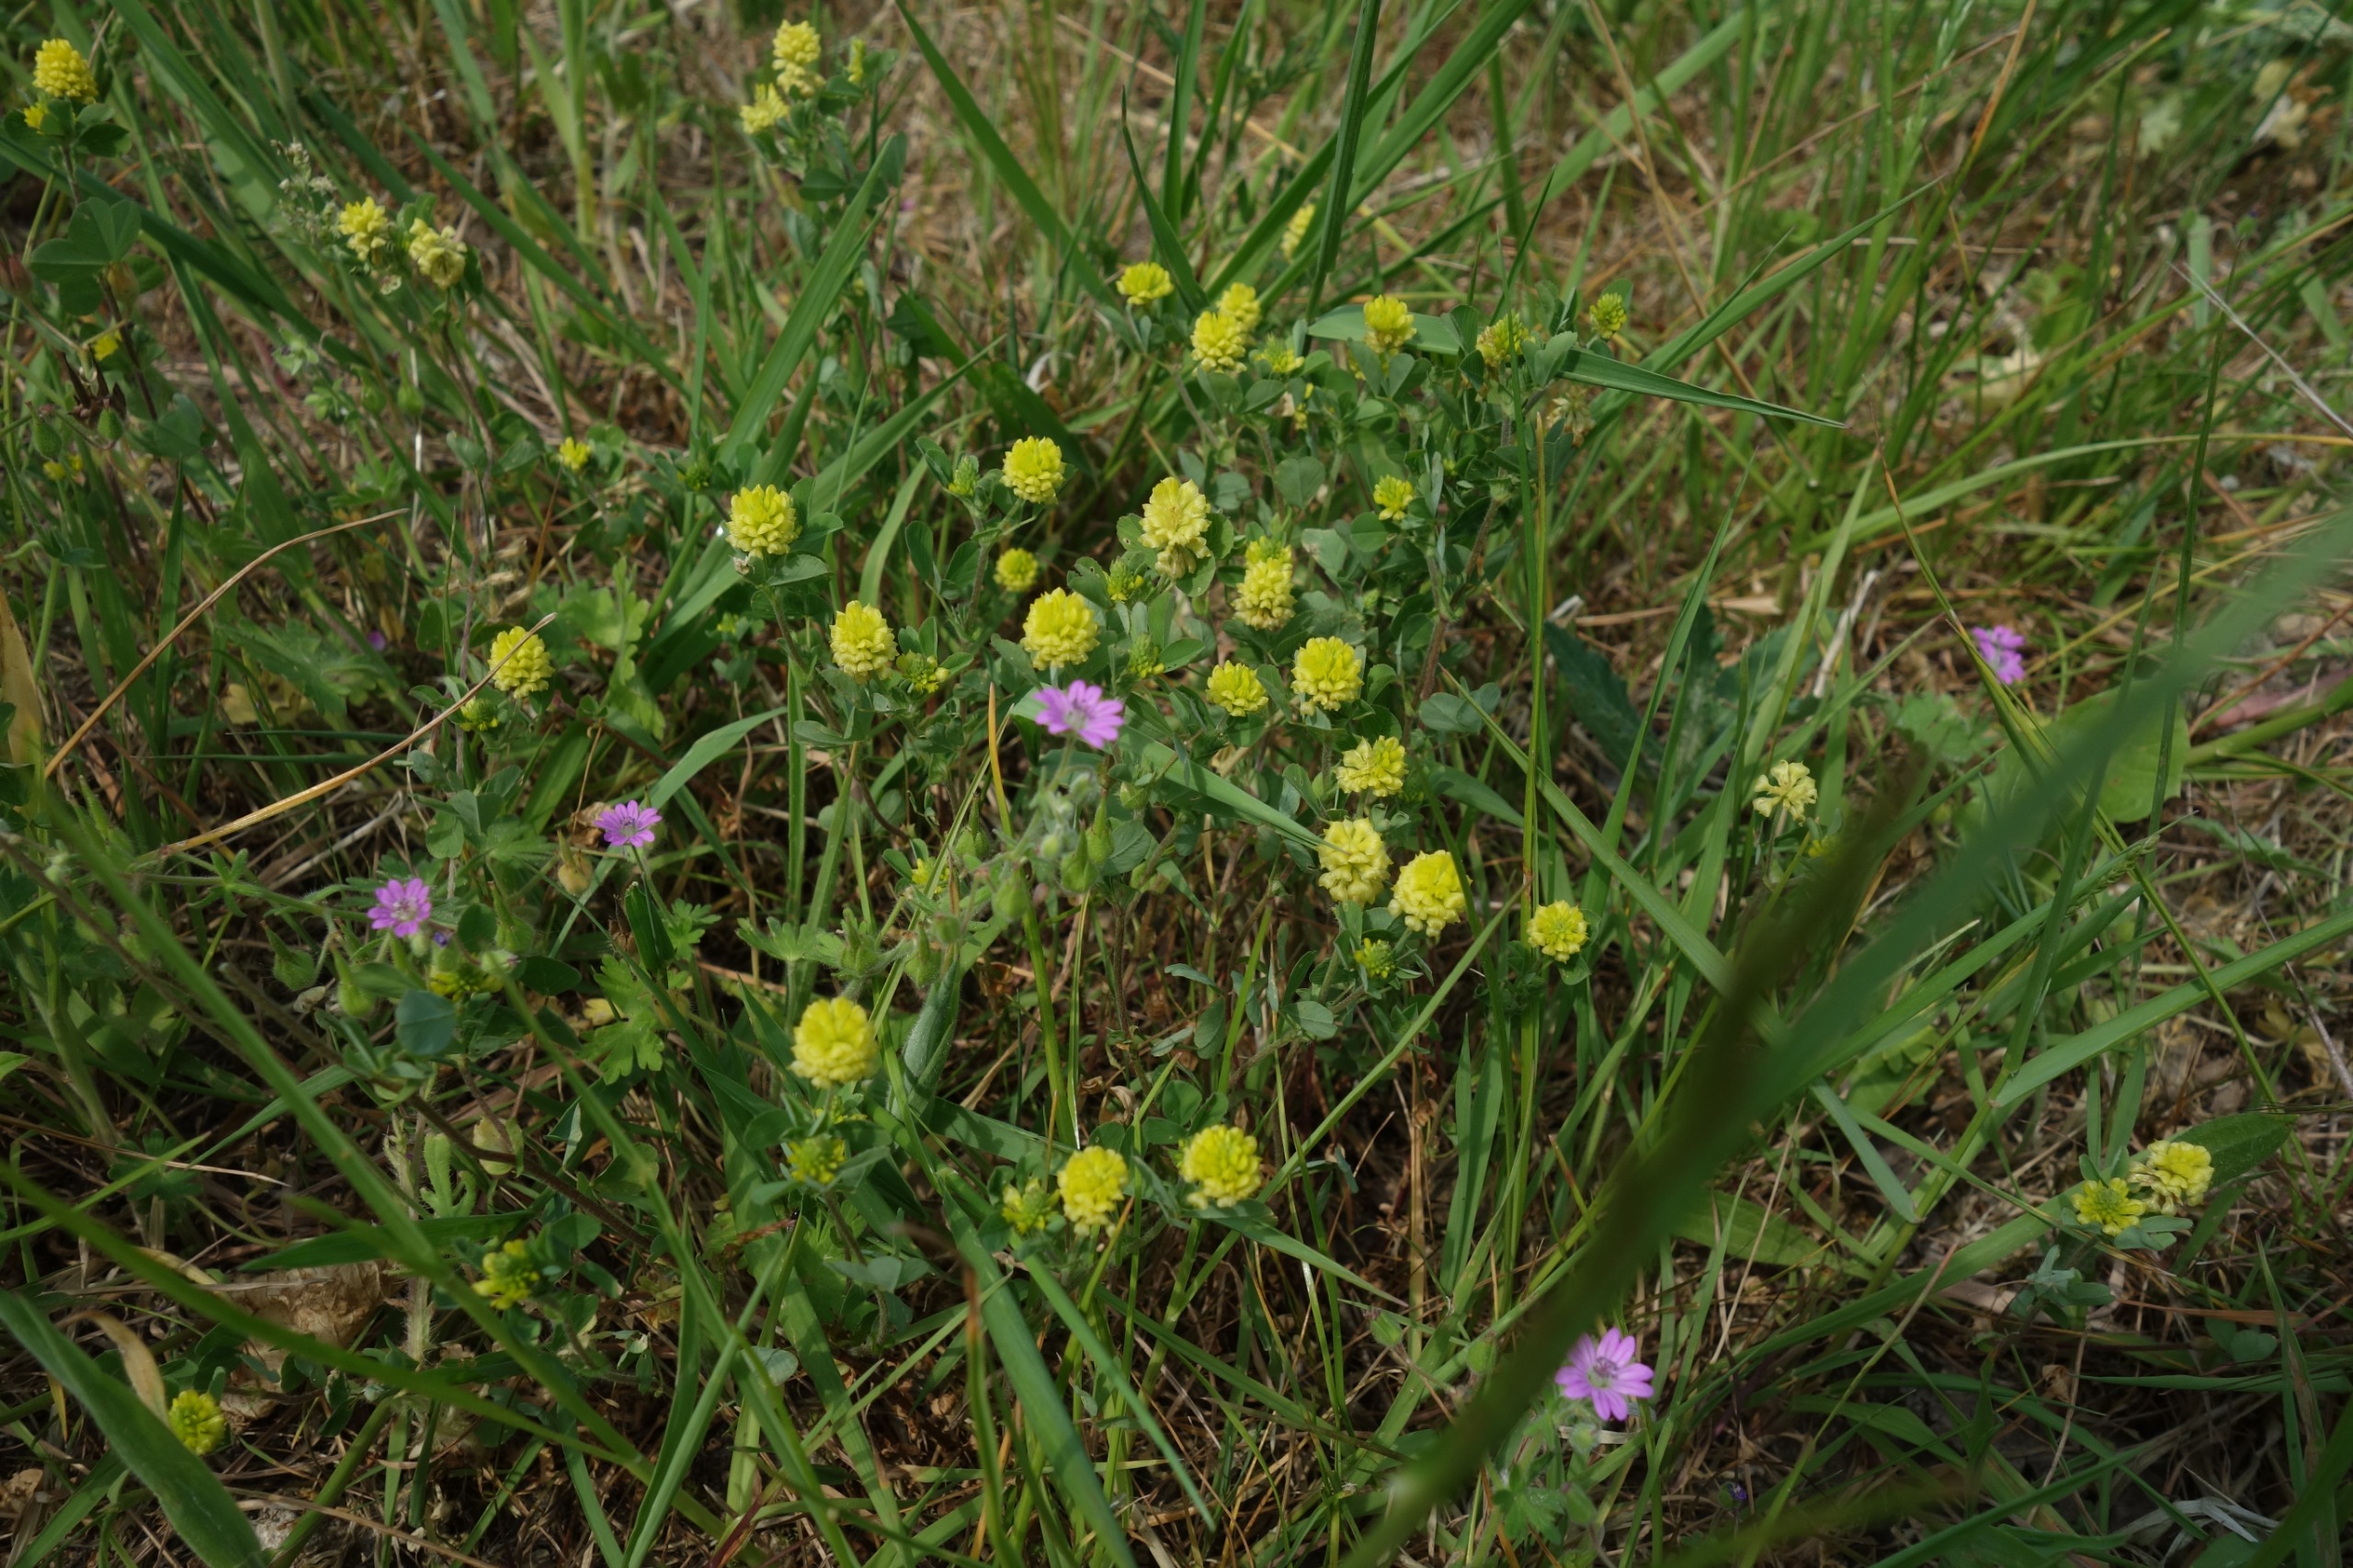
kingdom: Plantae
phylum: Tracheophyta
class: Magnoliopsida
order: Fabales
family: Fabaceae
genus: Trifolium
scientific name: Trifolium campestre
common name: Gul kløver
